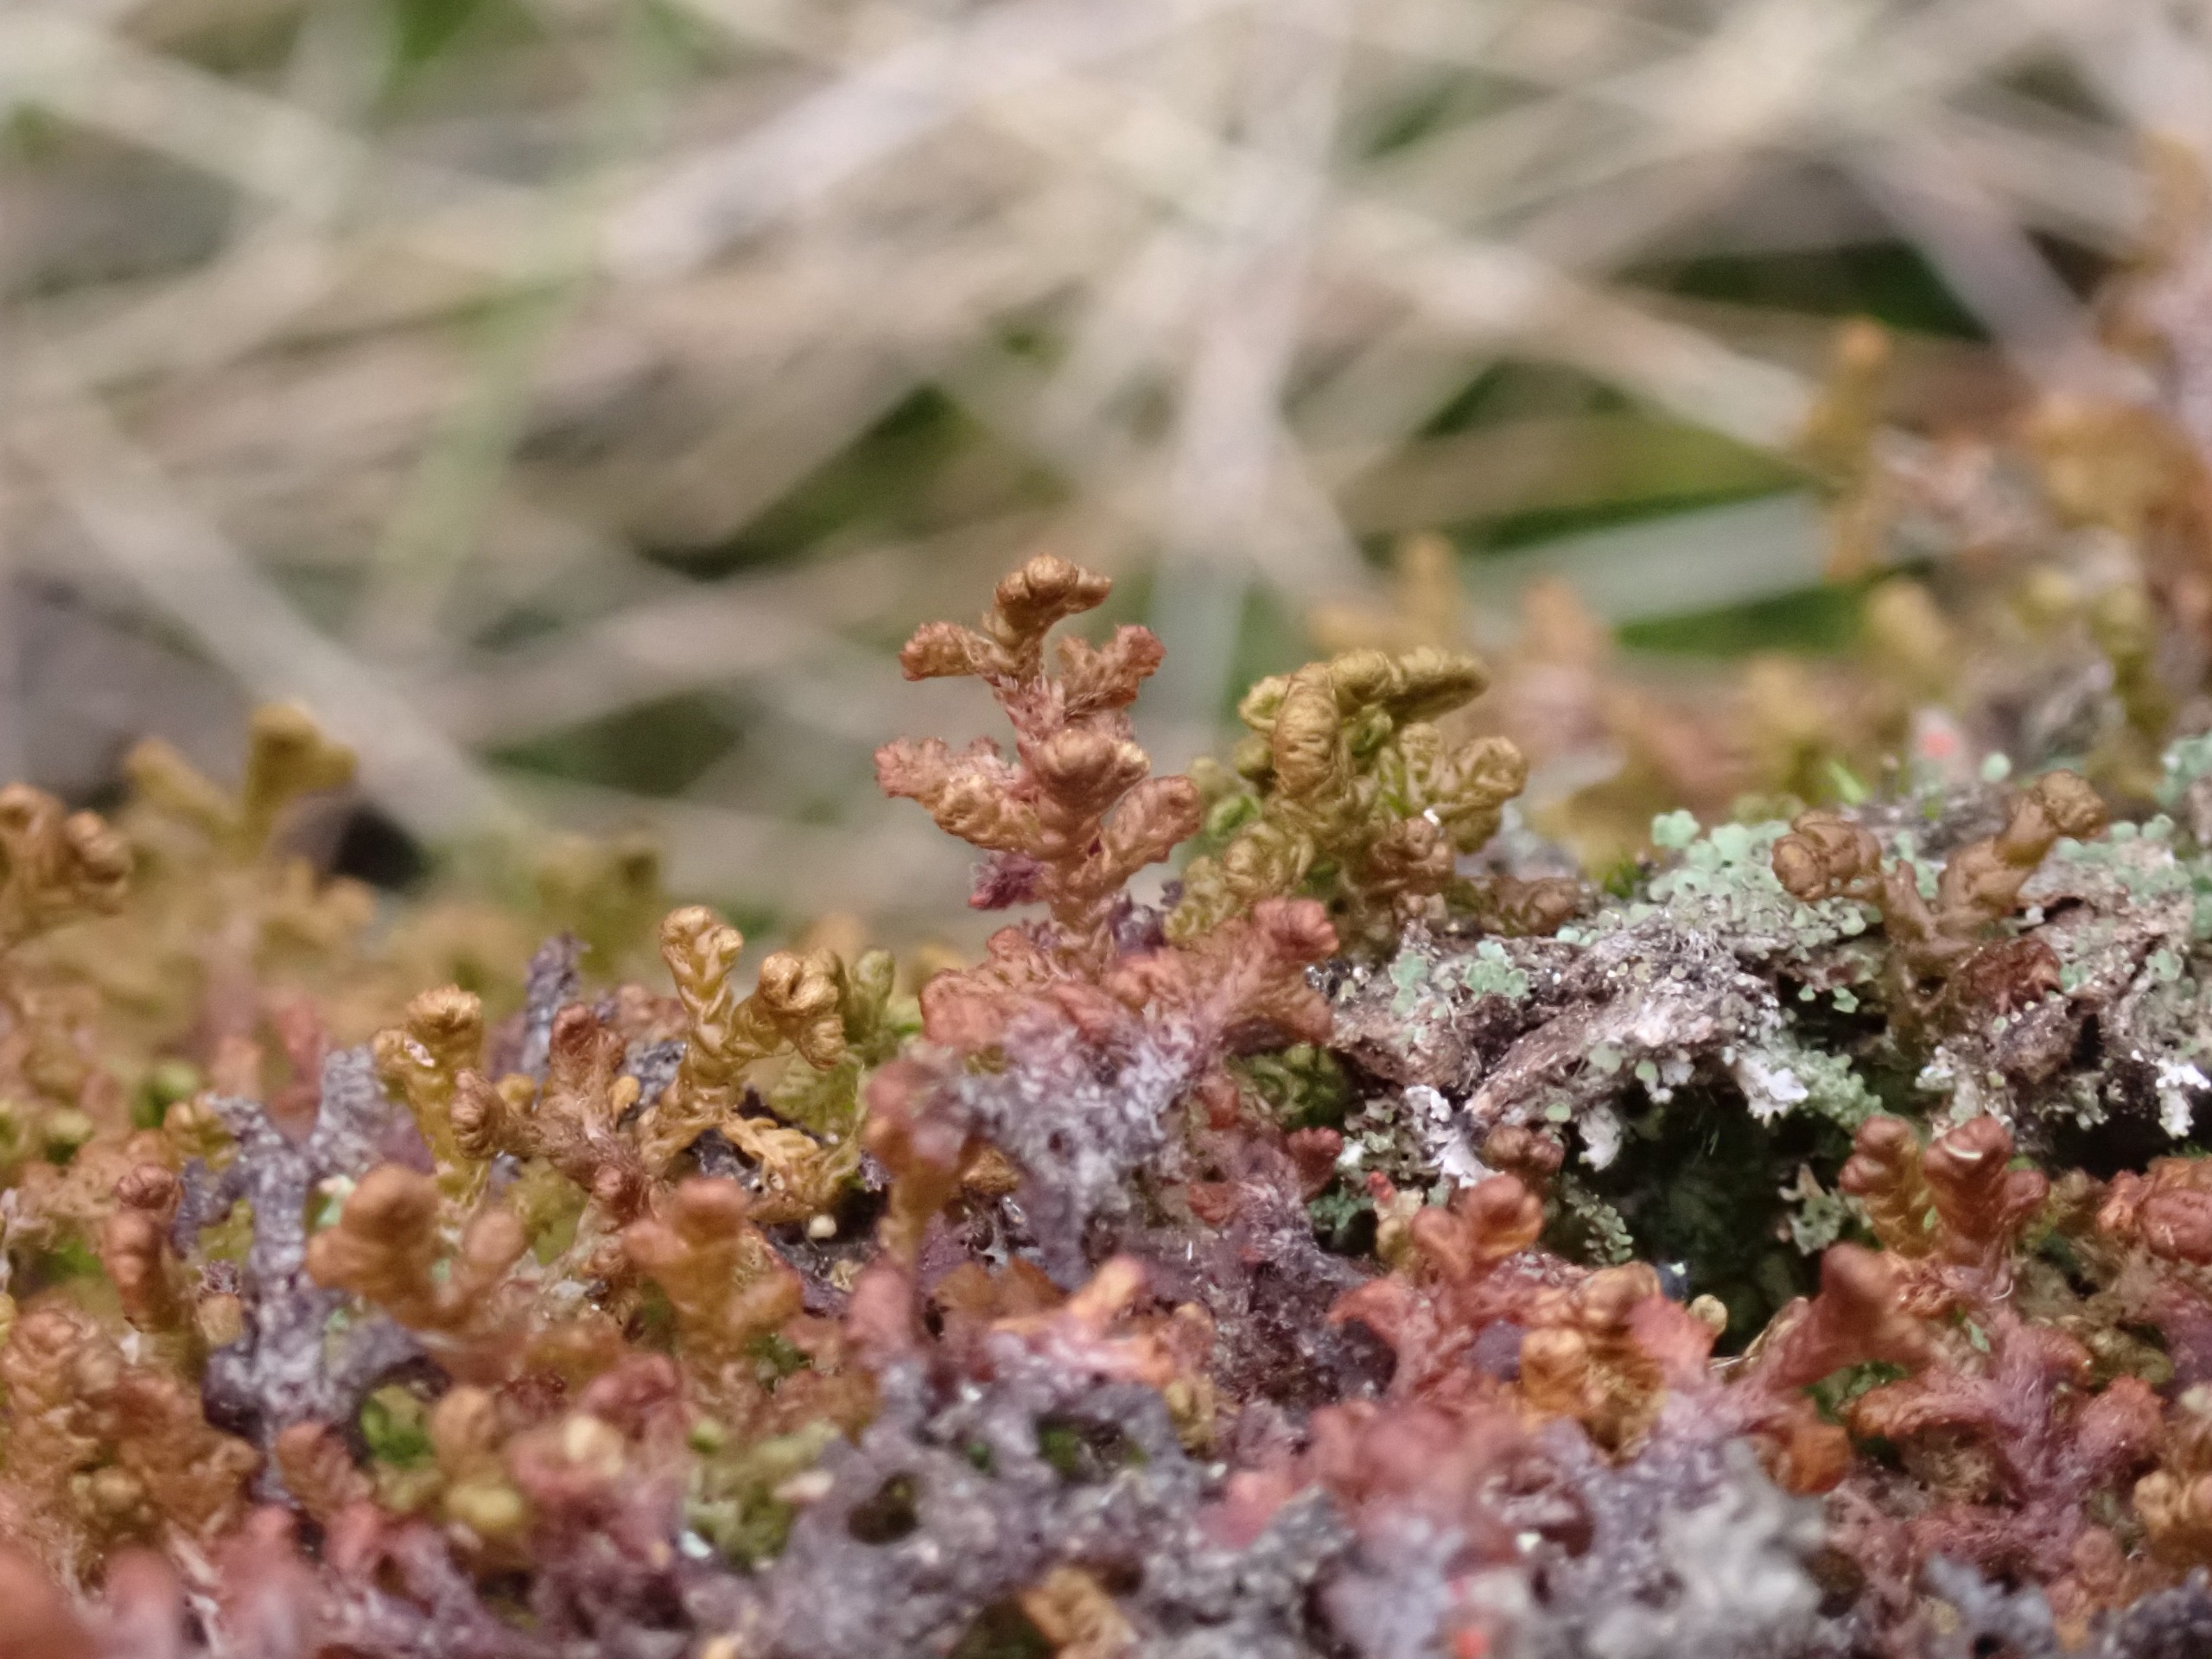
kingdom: Plantae
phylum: Marchantiophyta
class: Jungermanniopsida
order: Ptilidiales
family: Ptilidiaceae
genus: Ptilidium
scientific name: Ptilidium ciliare
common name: Almindelig frynsemos
